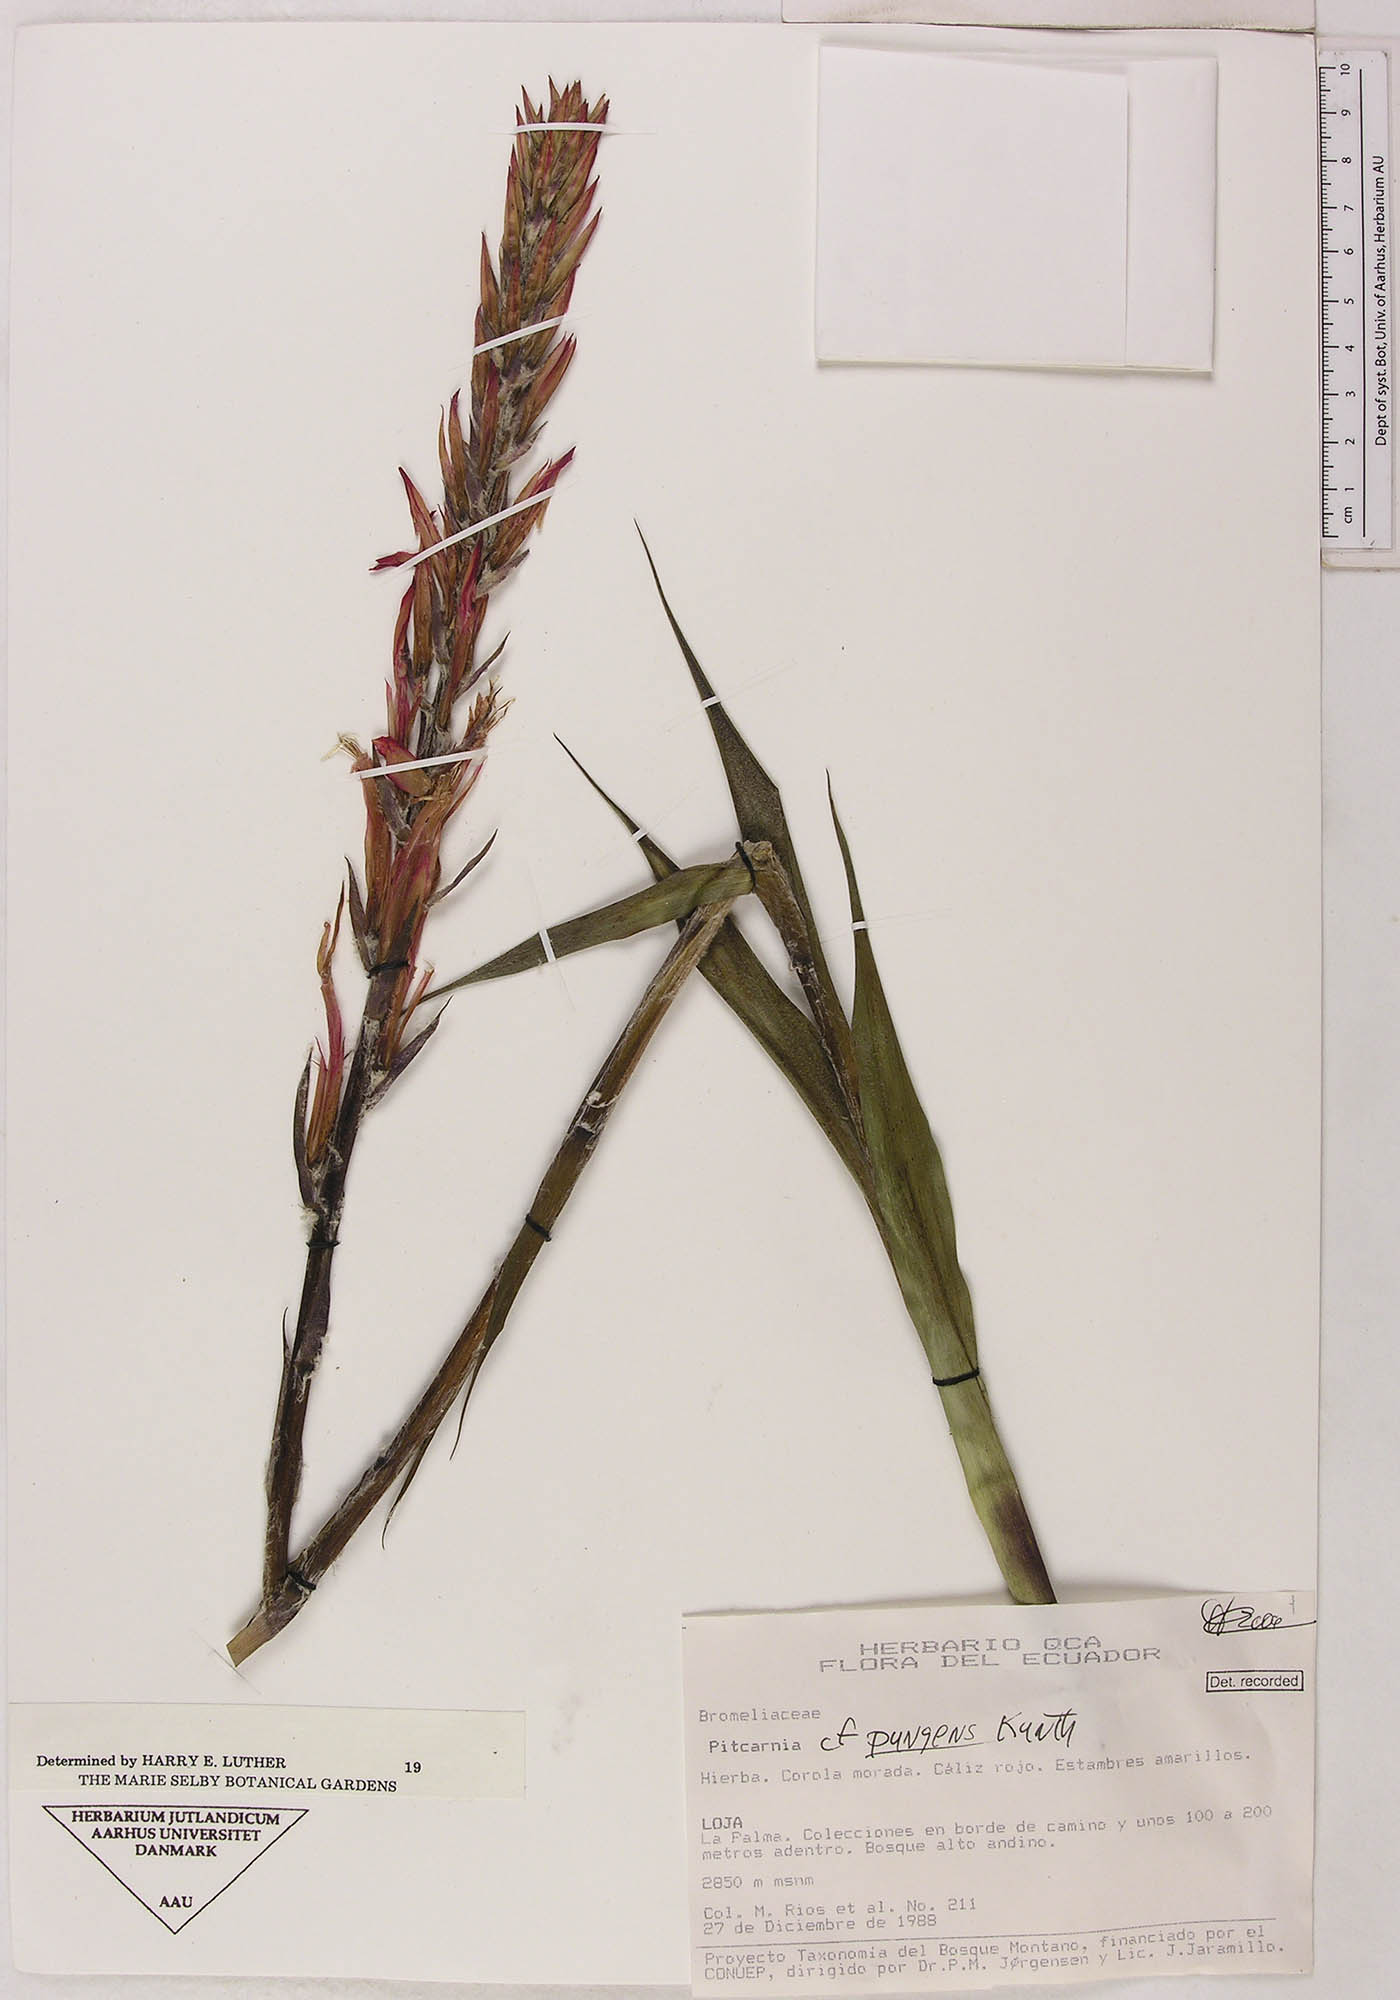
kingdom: Plantae
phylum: Tracheophyta
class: Liliopsida
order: Poales
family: Bromeliaceae
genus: Pitcairnia
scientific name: Pitcairnia pungens
